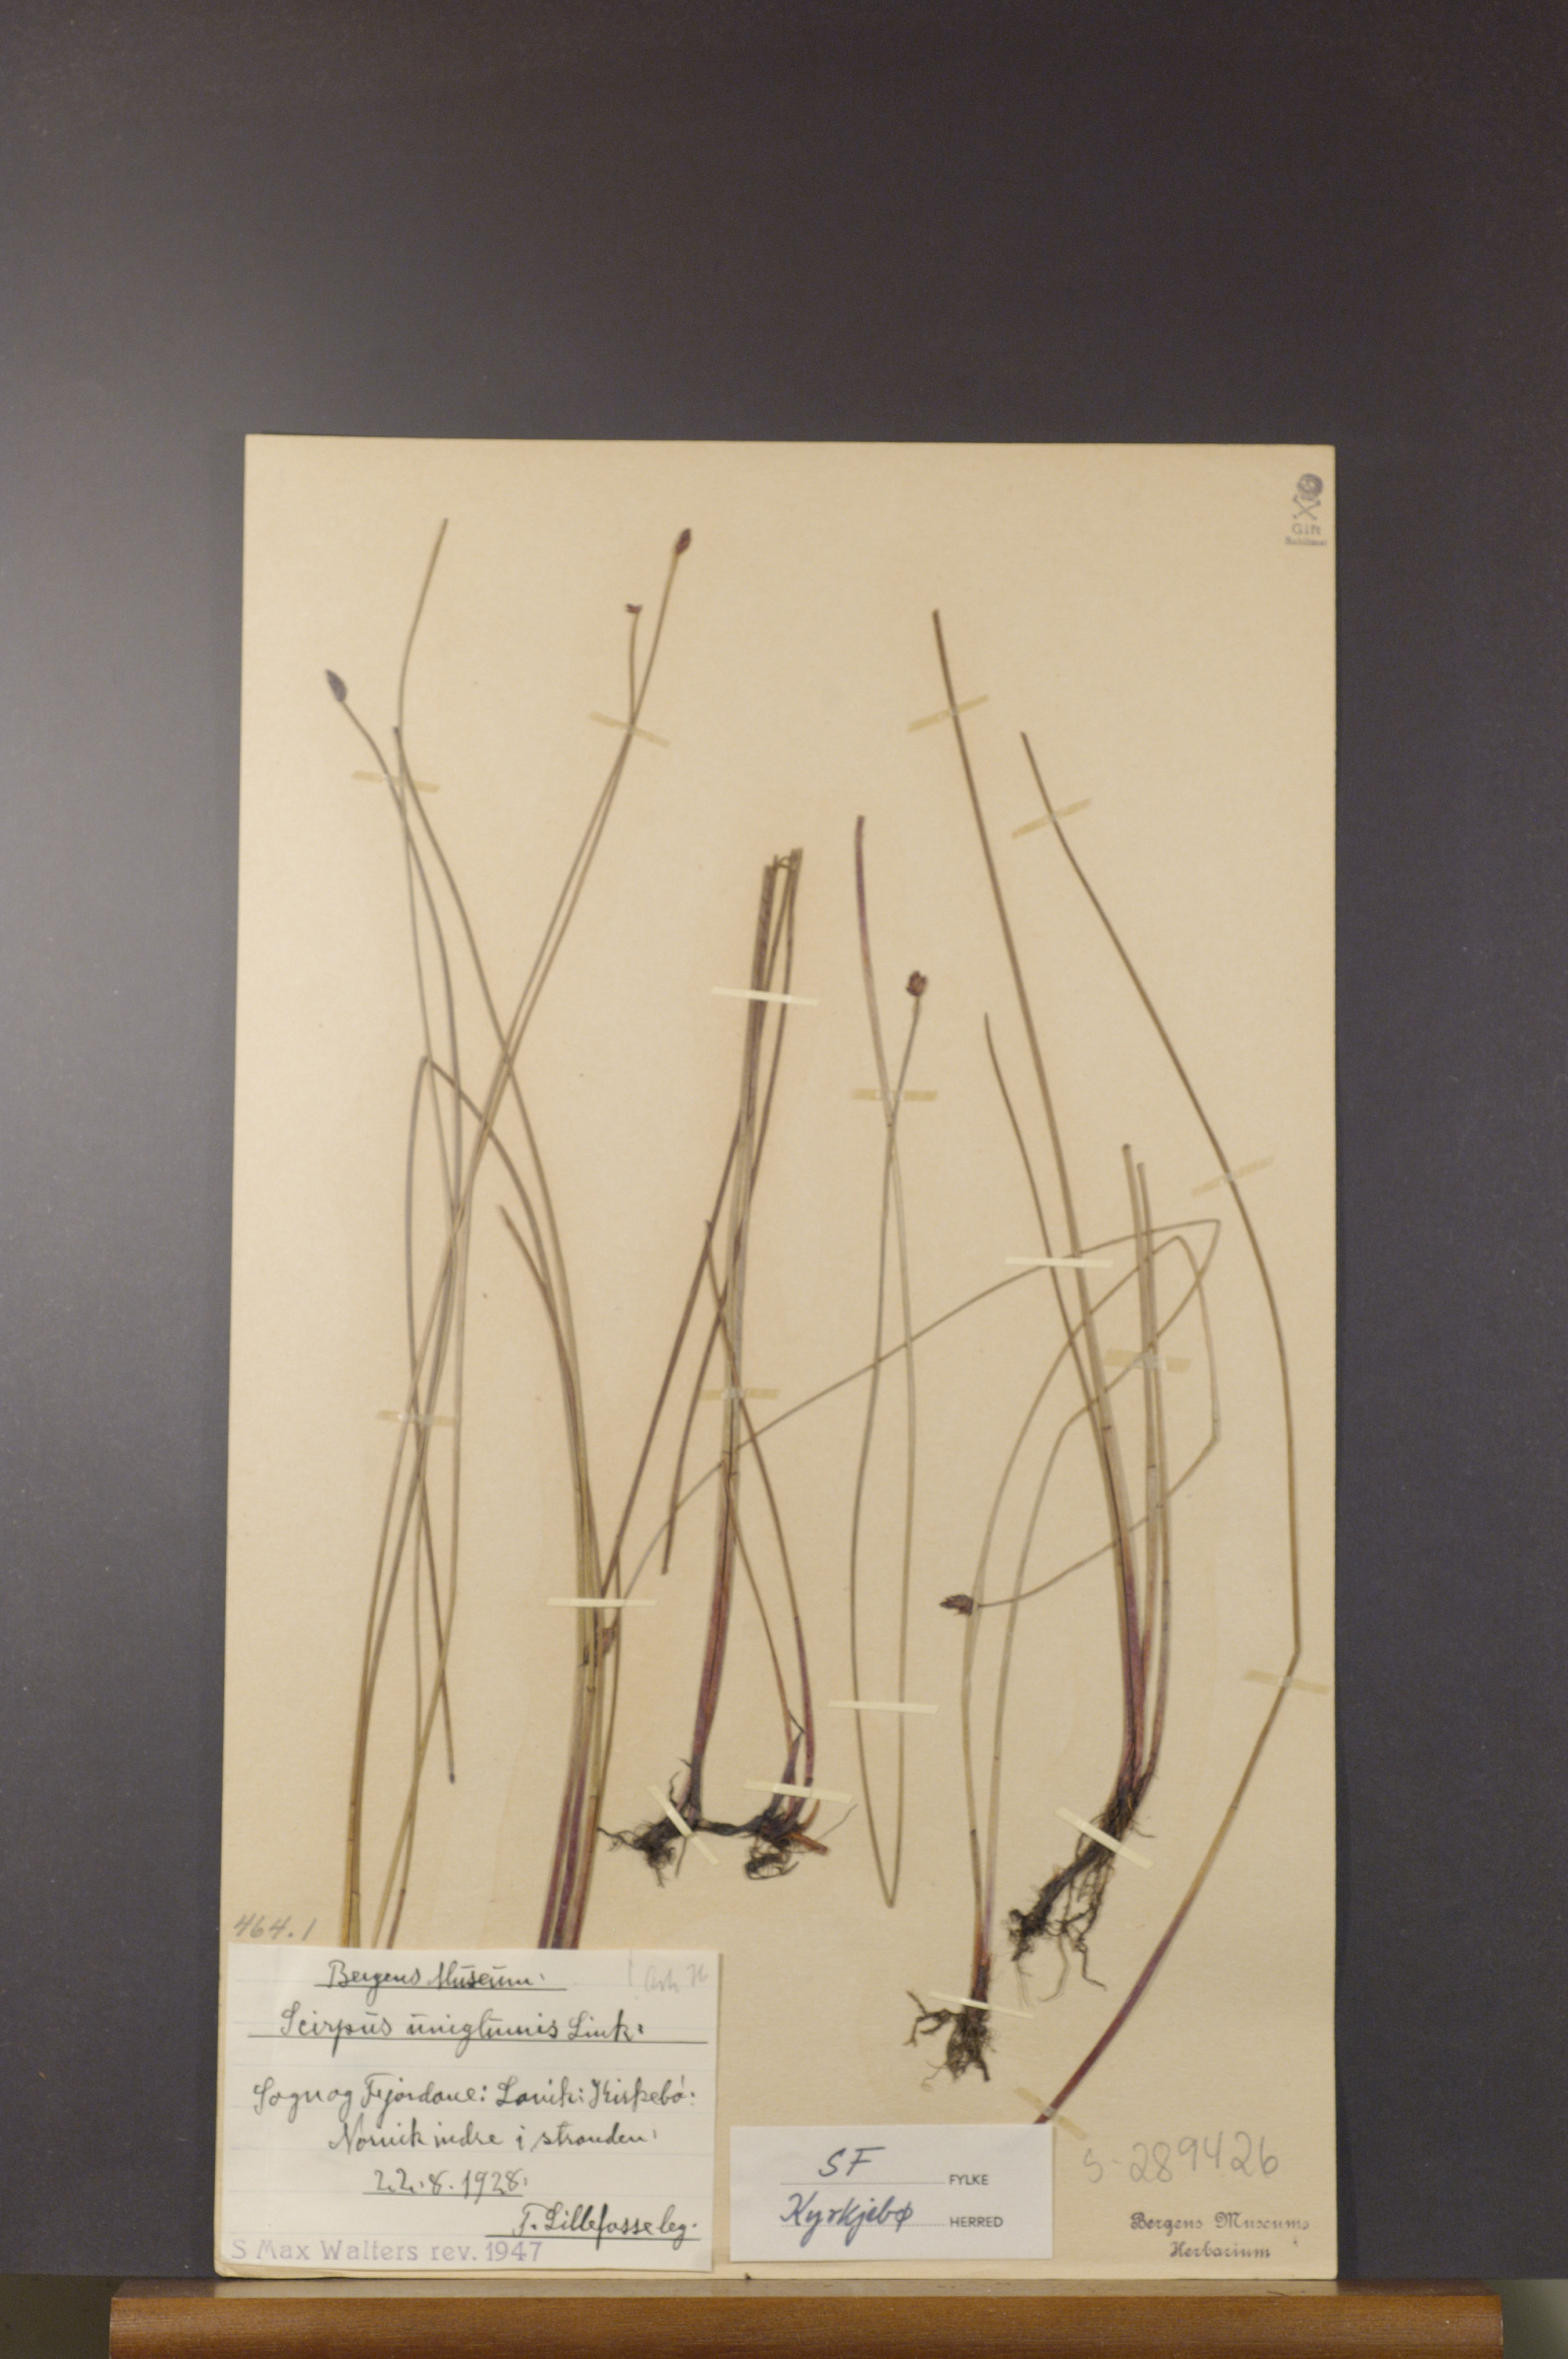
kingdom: Plantae
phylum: Tracheophyta
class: Liliopsida
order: Poales
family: Cyperaceae
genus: Eleocharis
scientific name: Eleocharis uniglumis
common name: Slender spike-rush
